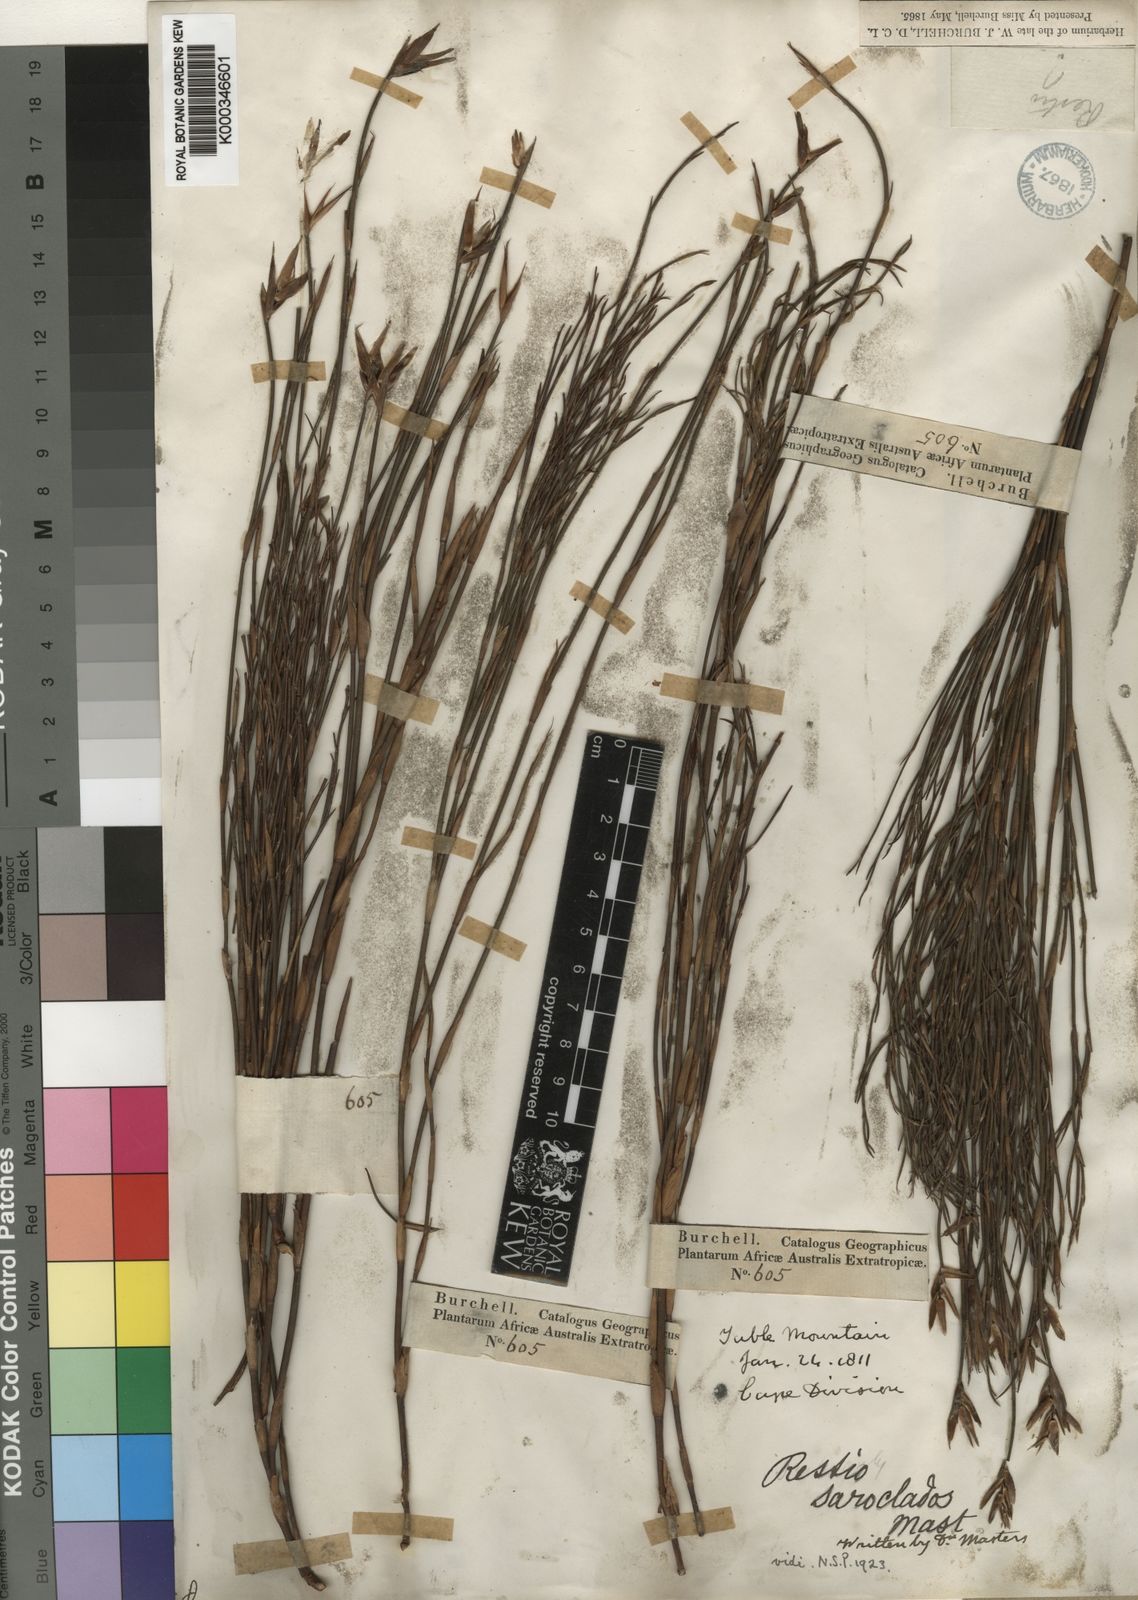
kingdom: Plantae
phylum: Tracheophyta
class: Liliopsida
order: Poales
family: Restionaceae
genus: Restio
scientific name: Restio saroclados
